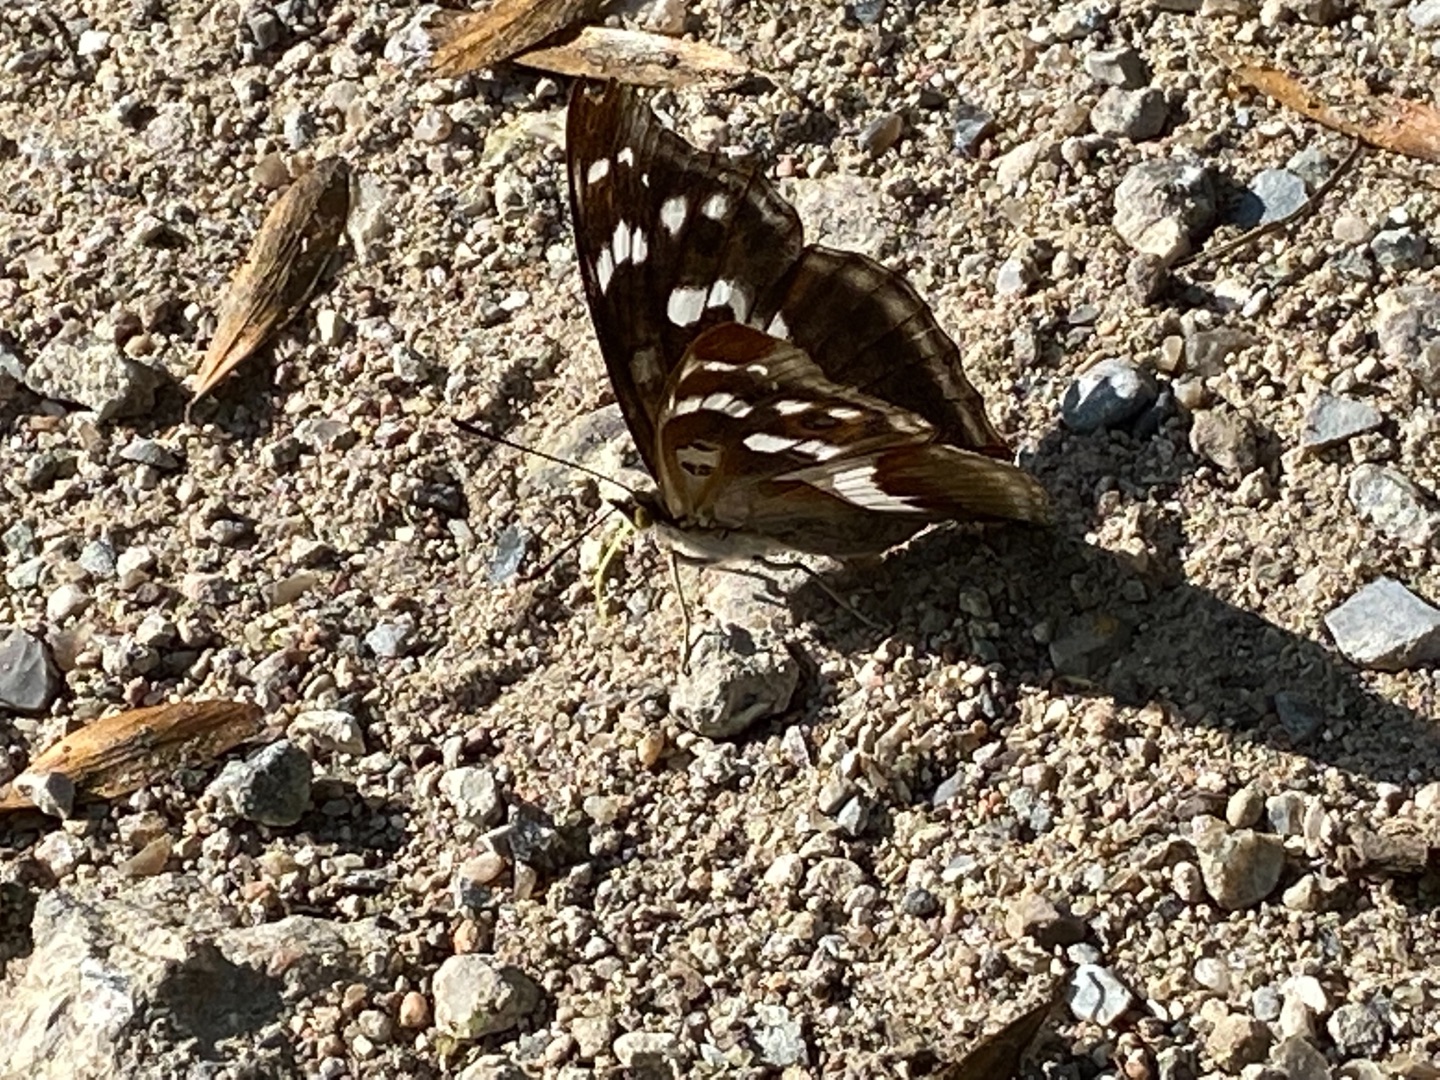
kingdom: Animalia
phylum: Arthropoda
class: Insecta
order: Lepidoptera
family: Nymphalidae
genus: Apatura
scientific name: Apatura iris
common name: Iris
